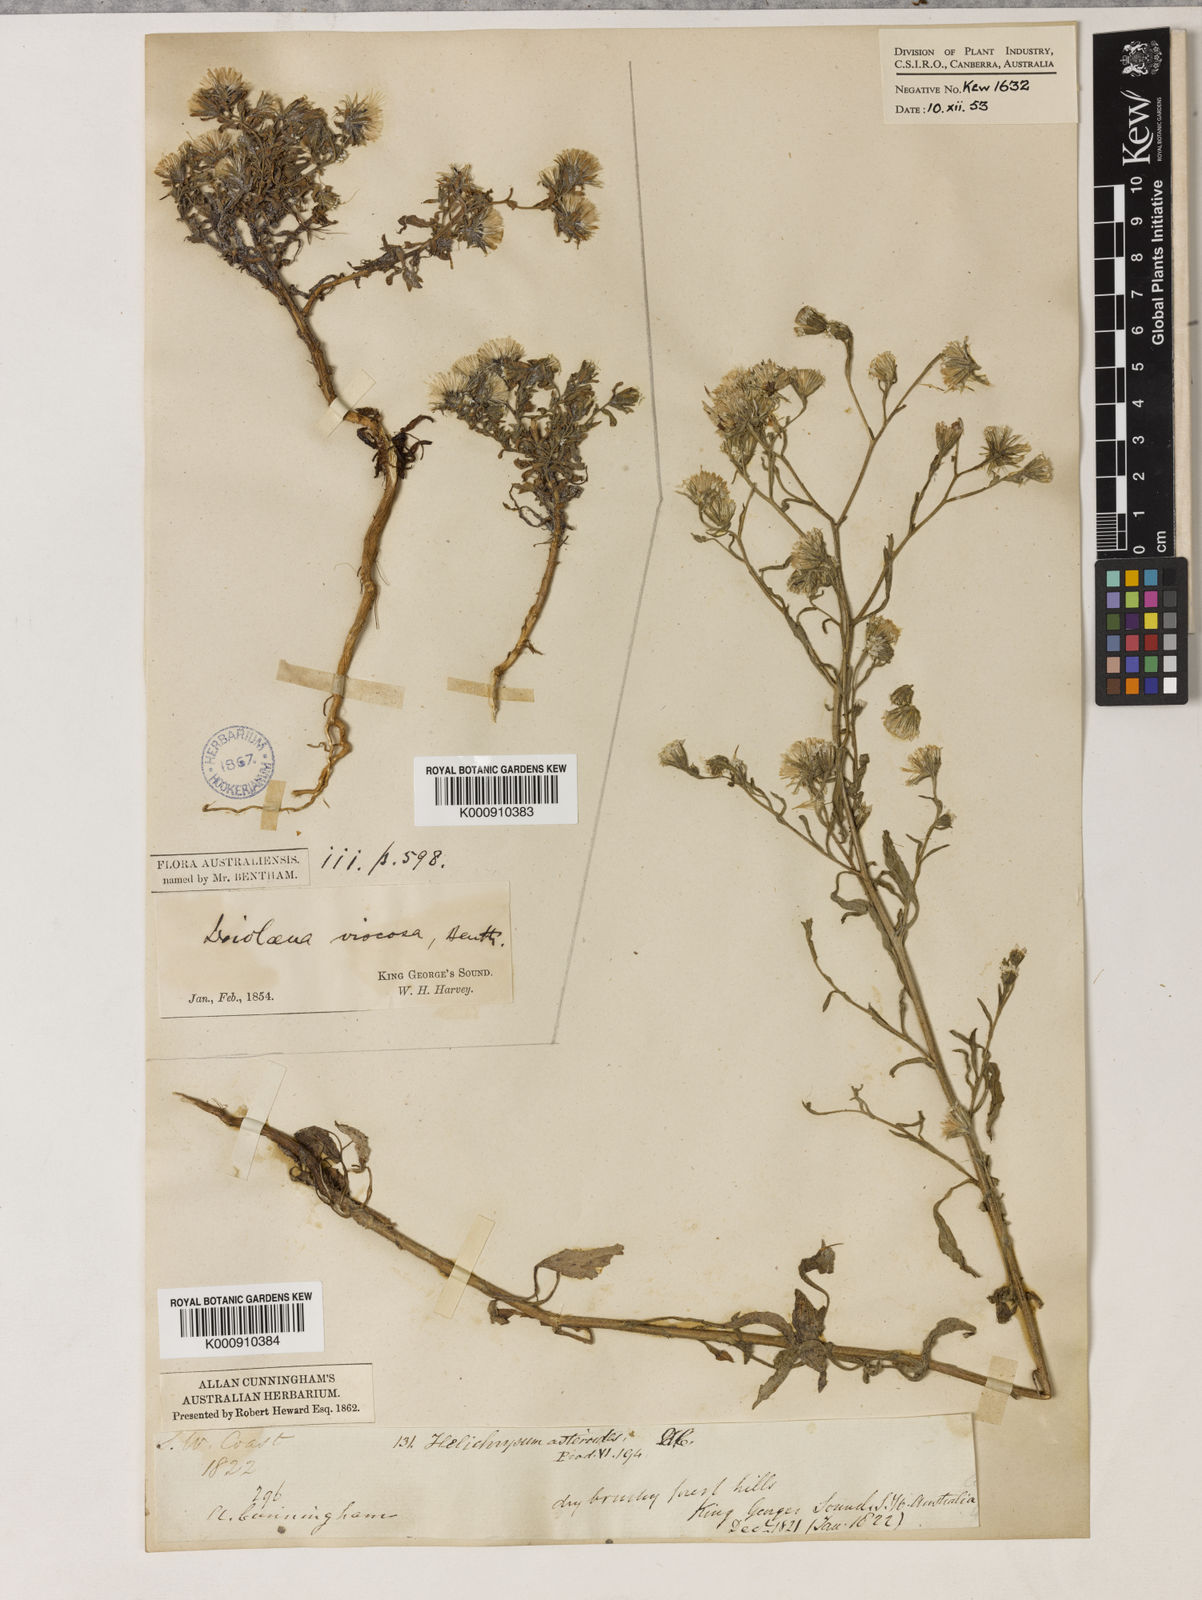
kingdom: Plantae
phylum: Tracheophyta
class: Magnoliopsida
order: Asterales
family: Asteraceae
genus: Ixiolaena
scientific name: Ixiolaena viscosa
